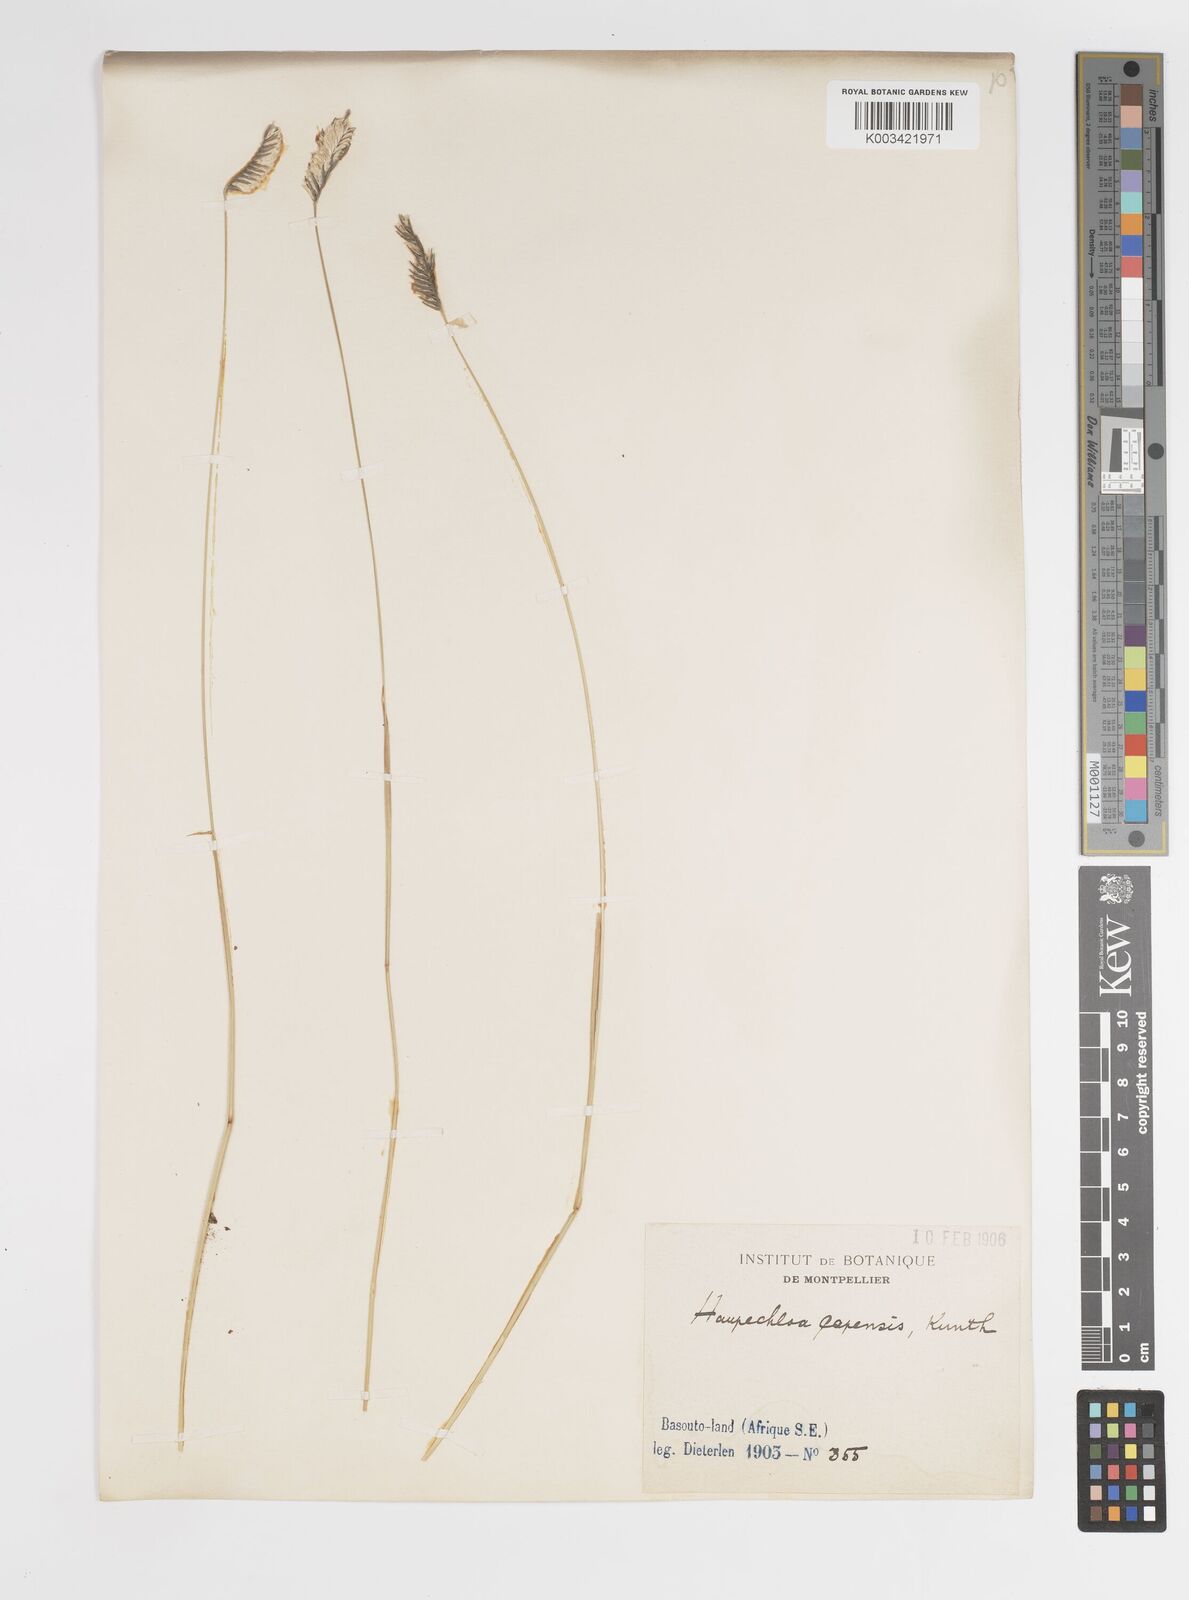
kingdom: Plantae
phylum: Tracheophyta
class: Liliopsida
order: Poales
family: Poaceae
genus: Harpochloa
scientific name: Harpochloa falx
